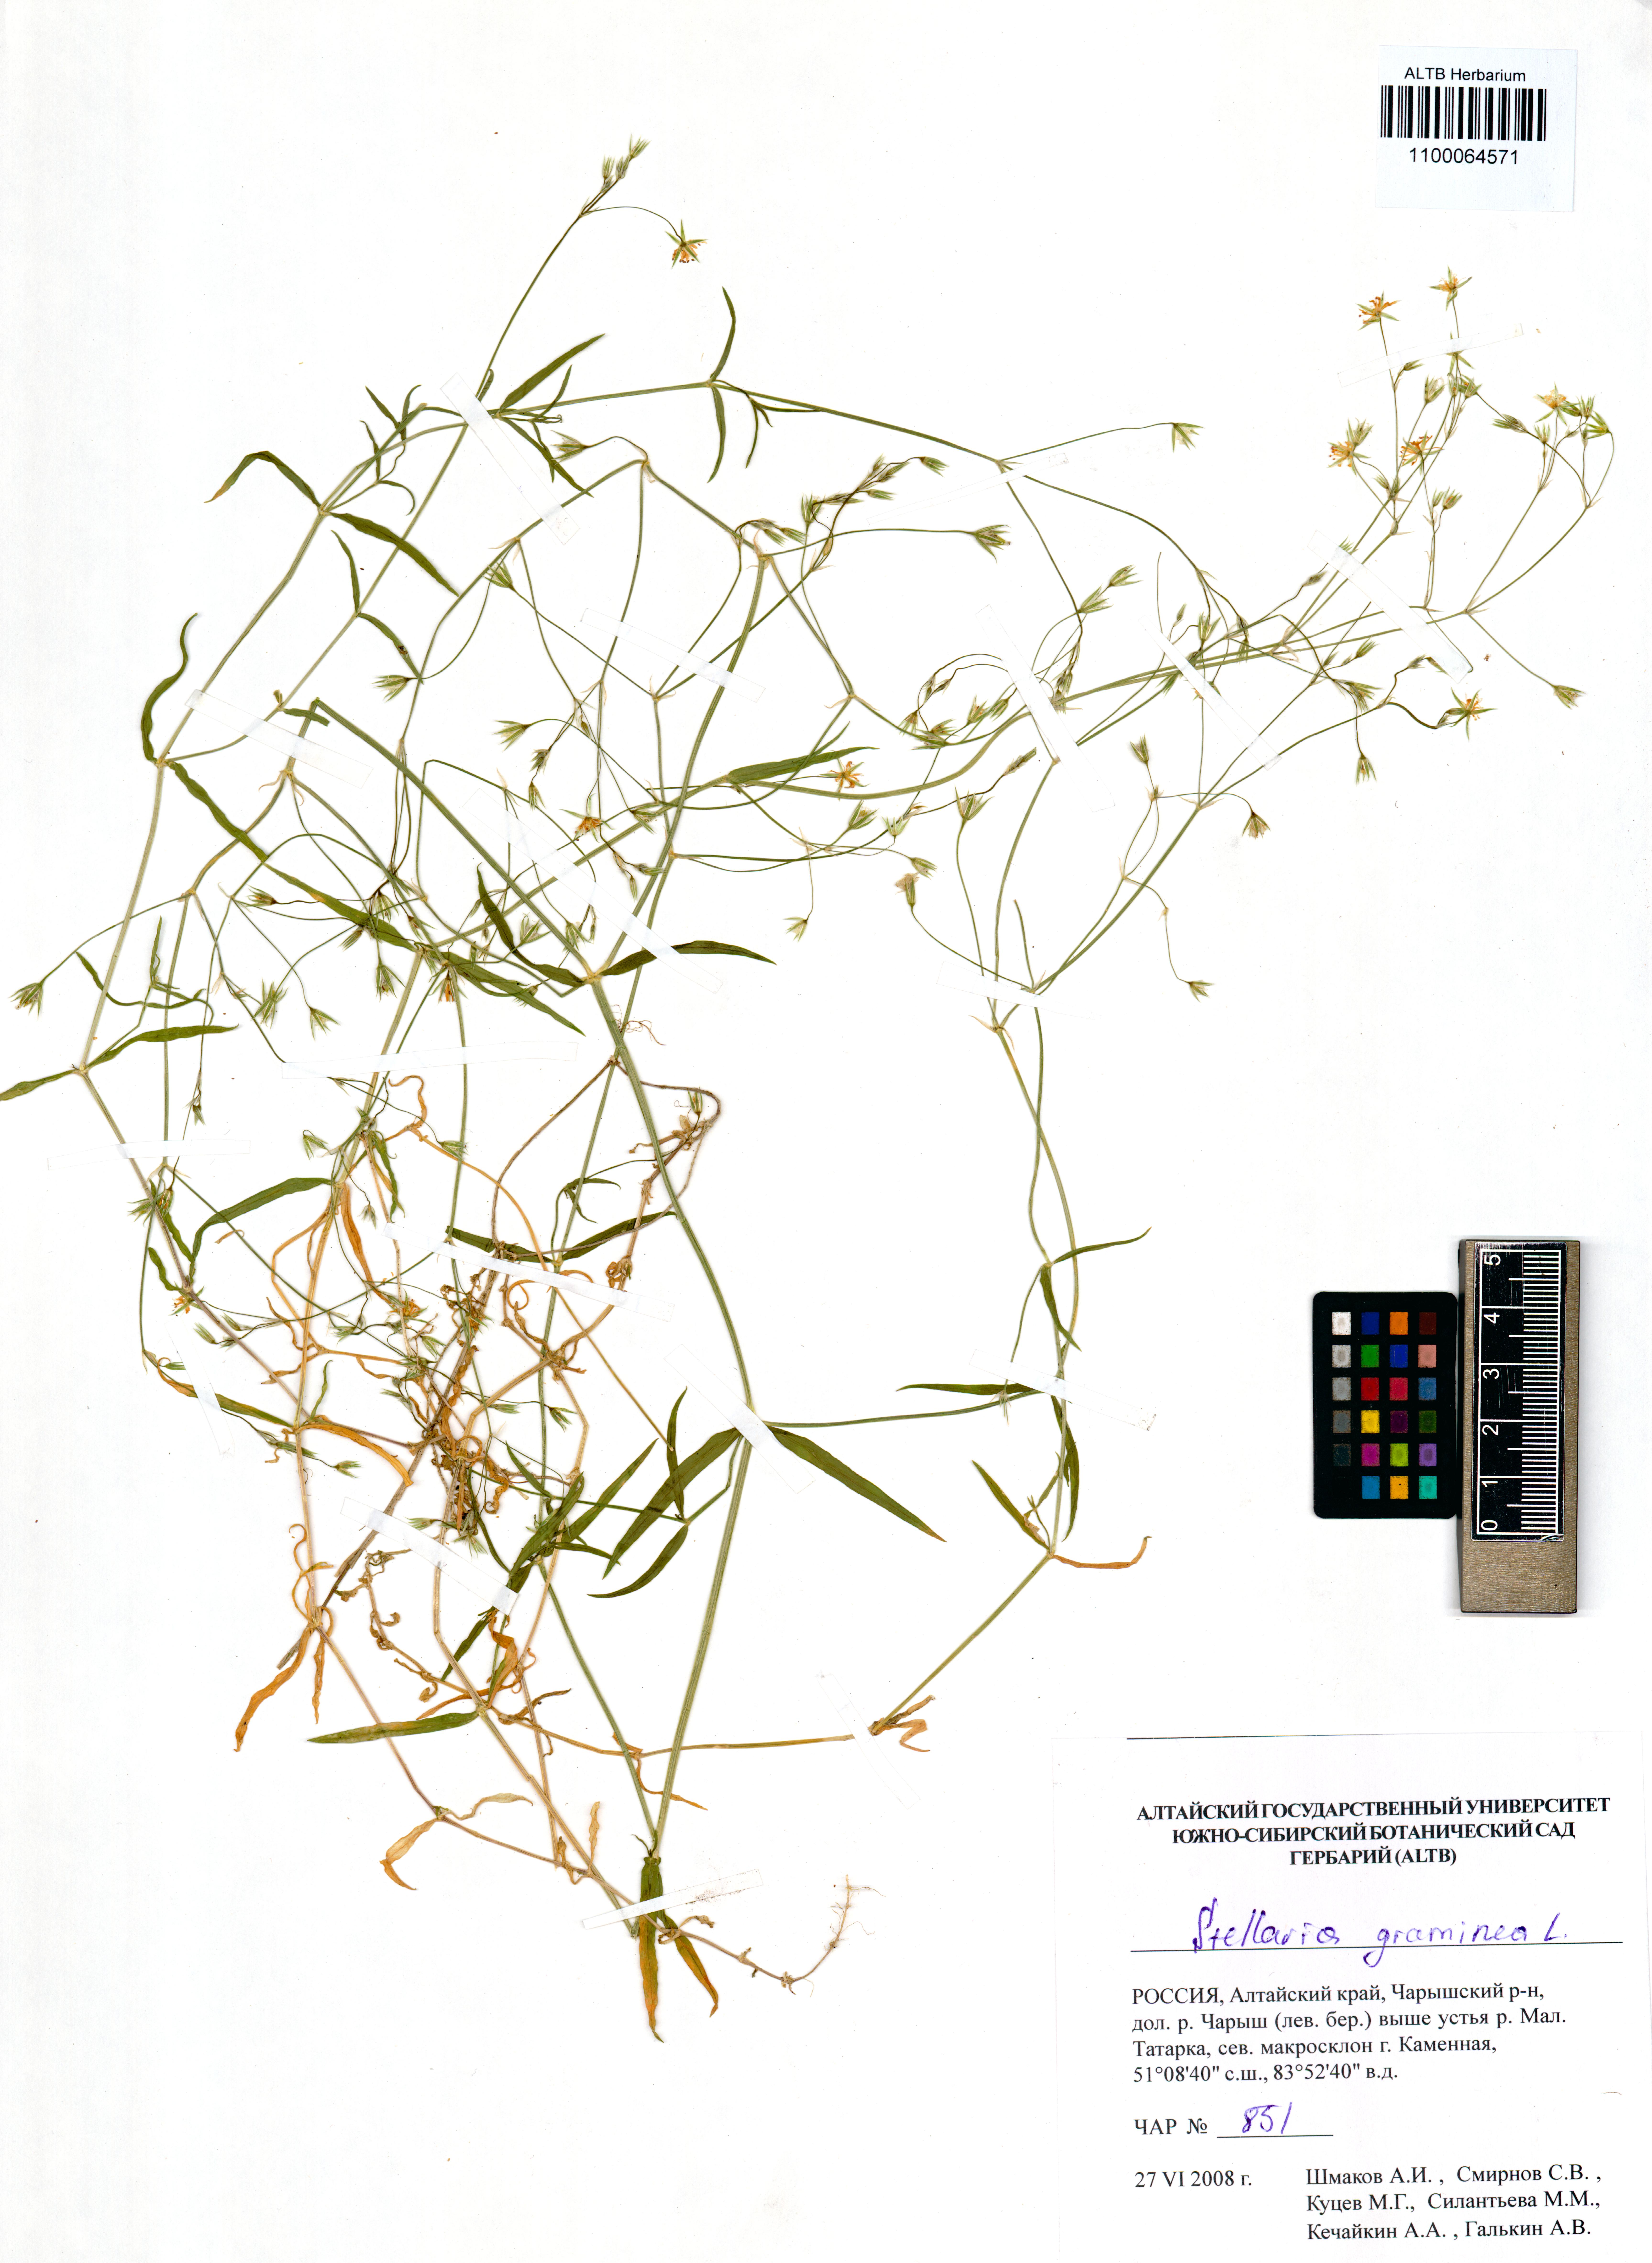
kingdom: Plantae
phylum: Tracheophyta
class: Magnoliopsida
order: Caryophyllales
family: Caryophyllaceae
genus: Stellaria
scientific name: Stellaria graminea
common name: Grass-like starwort
